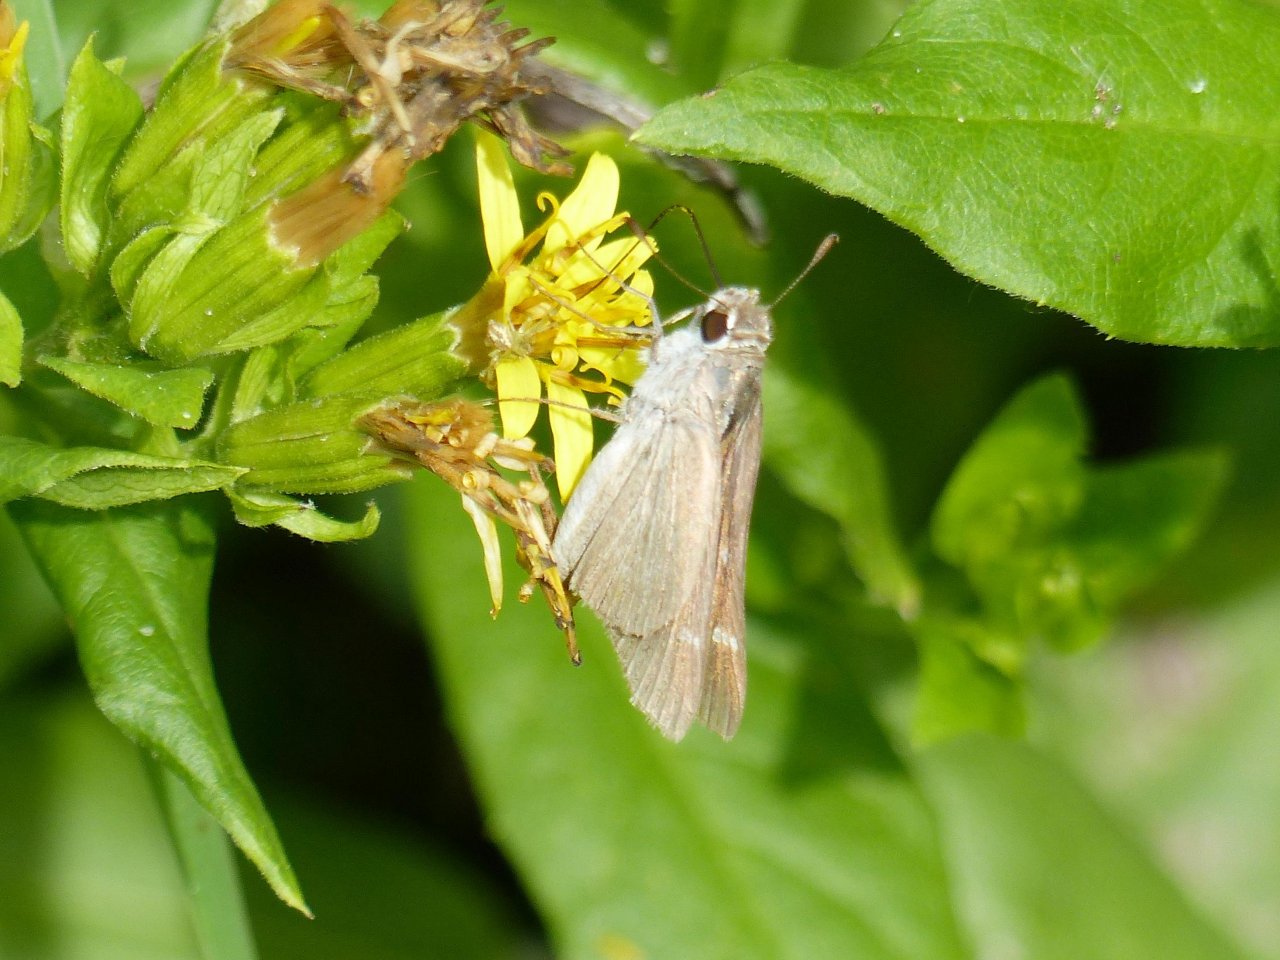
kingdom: Animalia
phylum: Arthropoda
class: Insecta
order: Lepidoptera
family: Hesperiidae
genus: Nastra
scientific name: Nastra julia
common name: Julia's Skipper
